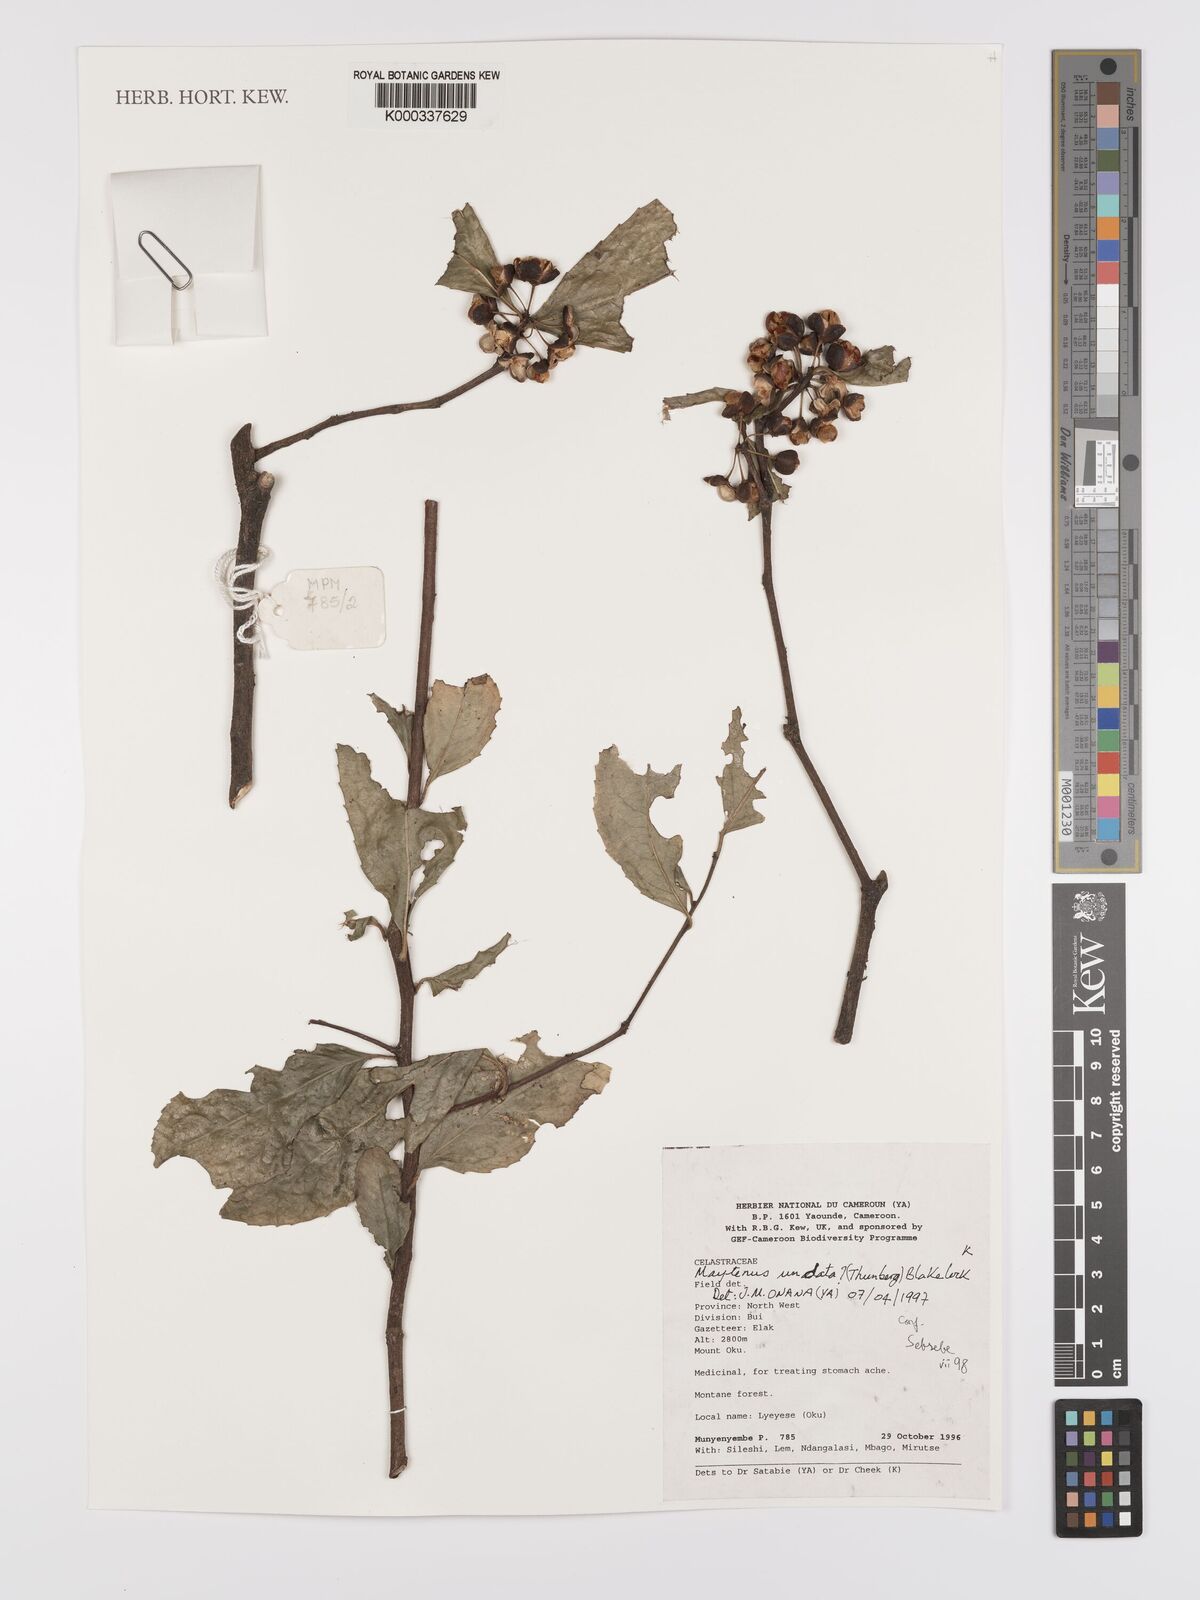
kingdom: Plantae
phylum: Tracheophyta
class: Magnoliopsida
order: Celastrales
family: Celastraceae
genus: Gymnosporia
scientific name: Gymnosporia undata
